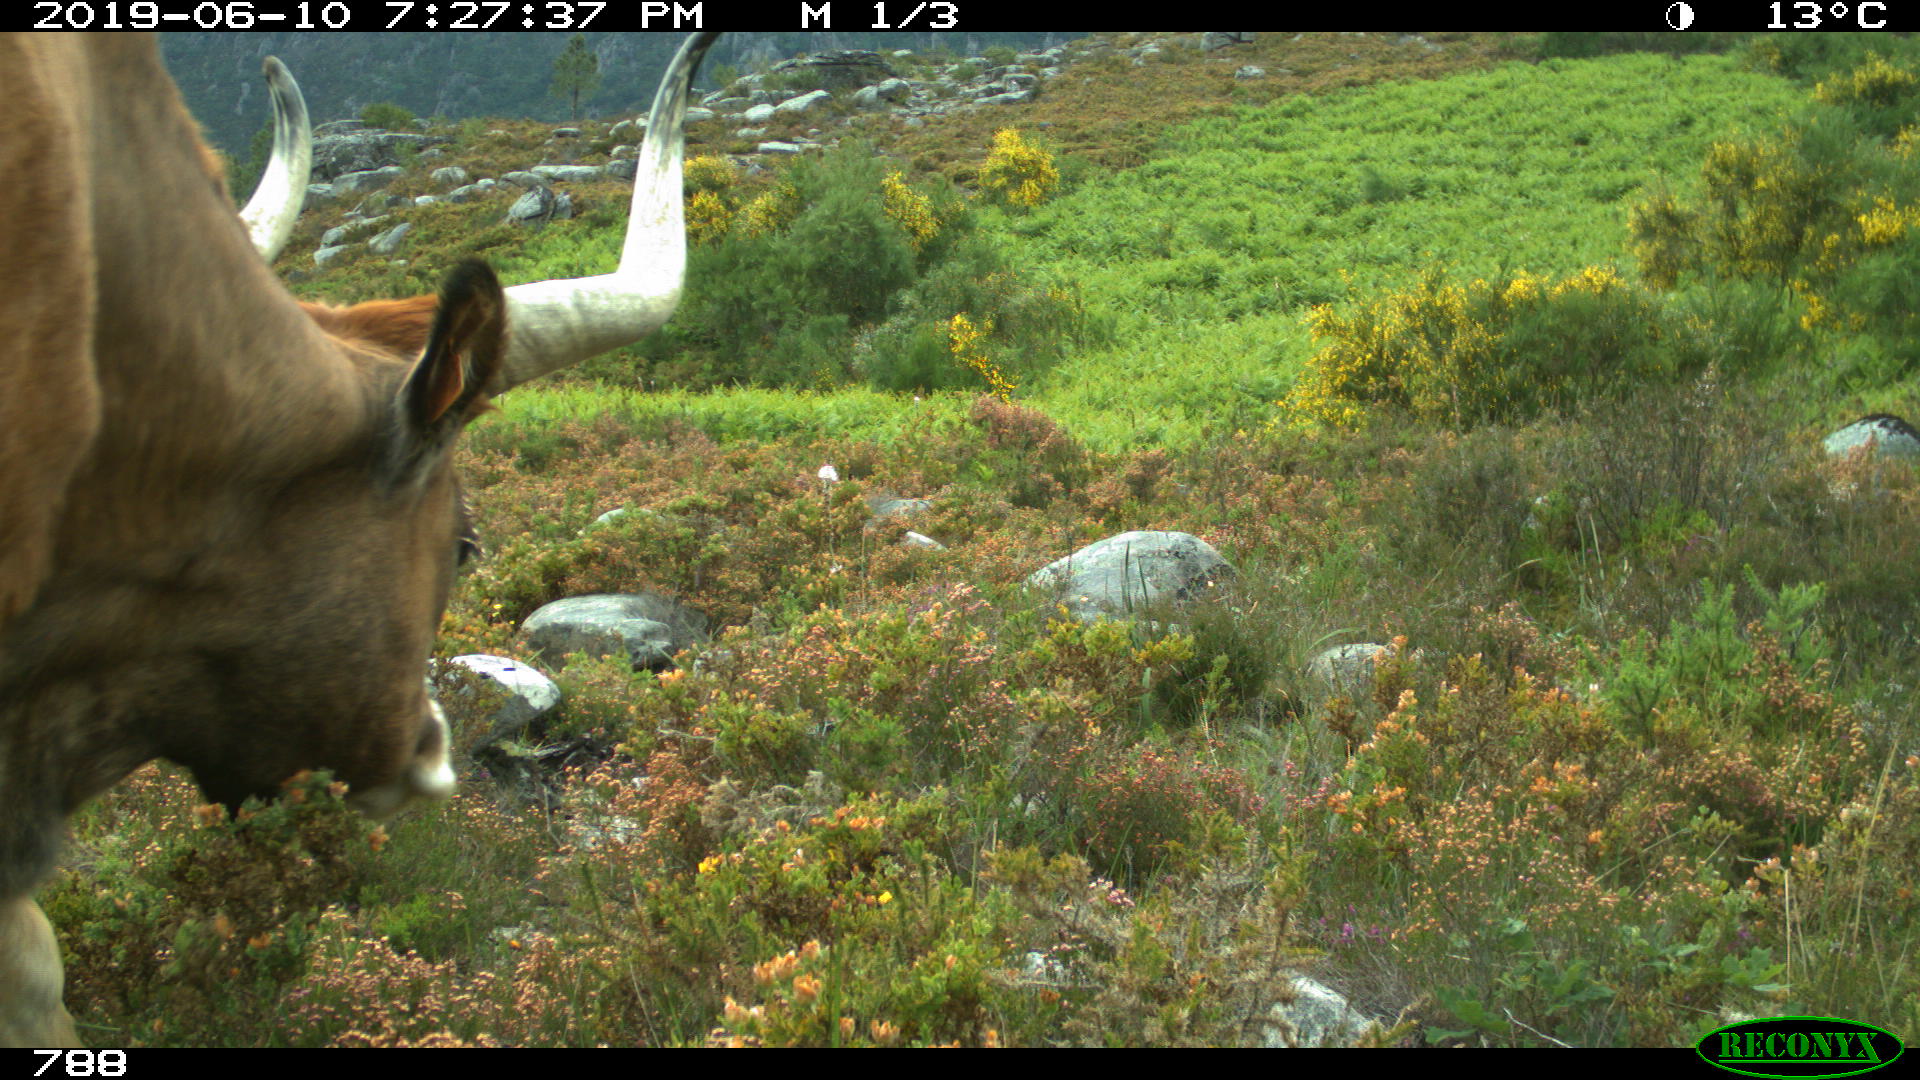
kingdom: Animalia
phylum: Chordata
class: Mammalia
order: Artiodactyla
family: Bovidae
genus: Bos
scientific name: Bos taurus
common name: Domesticated cattle
